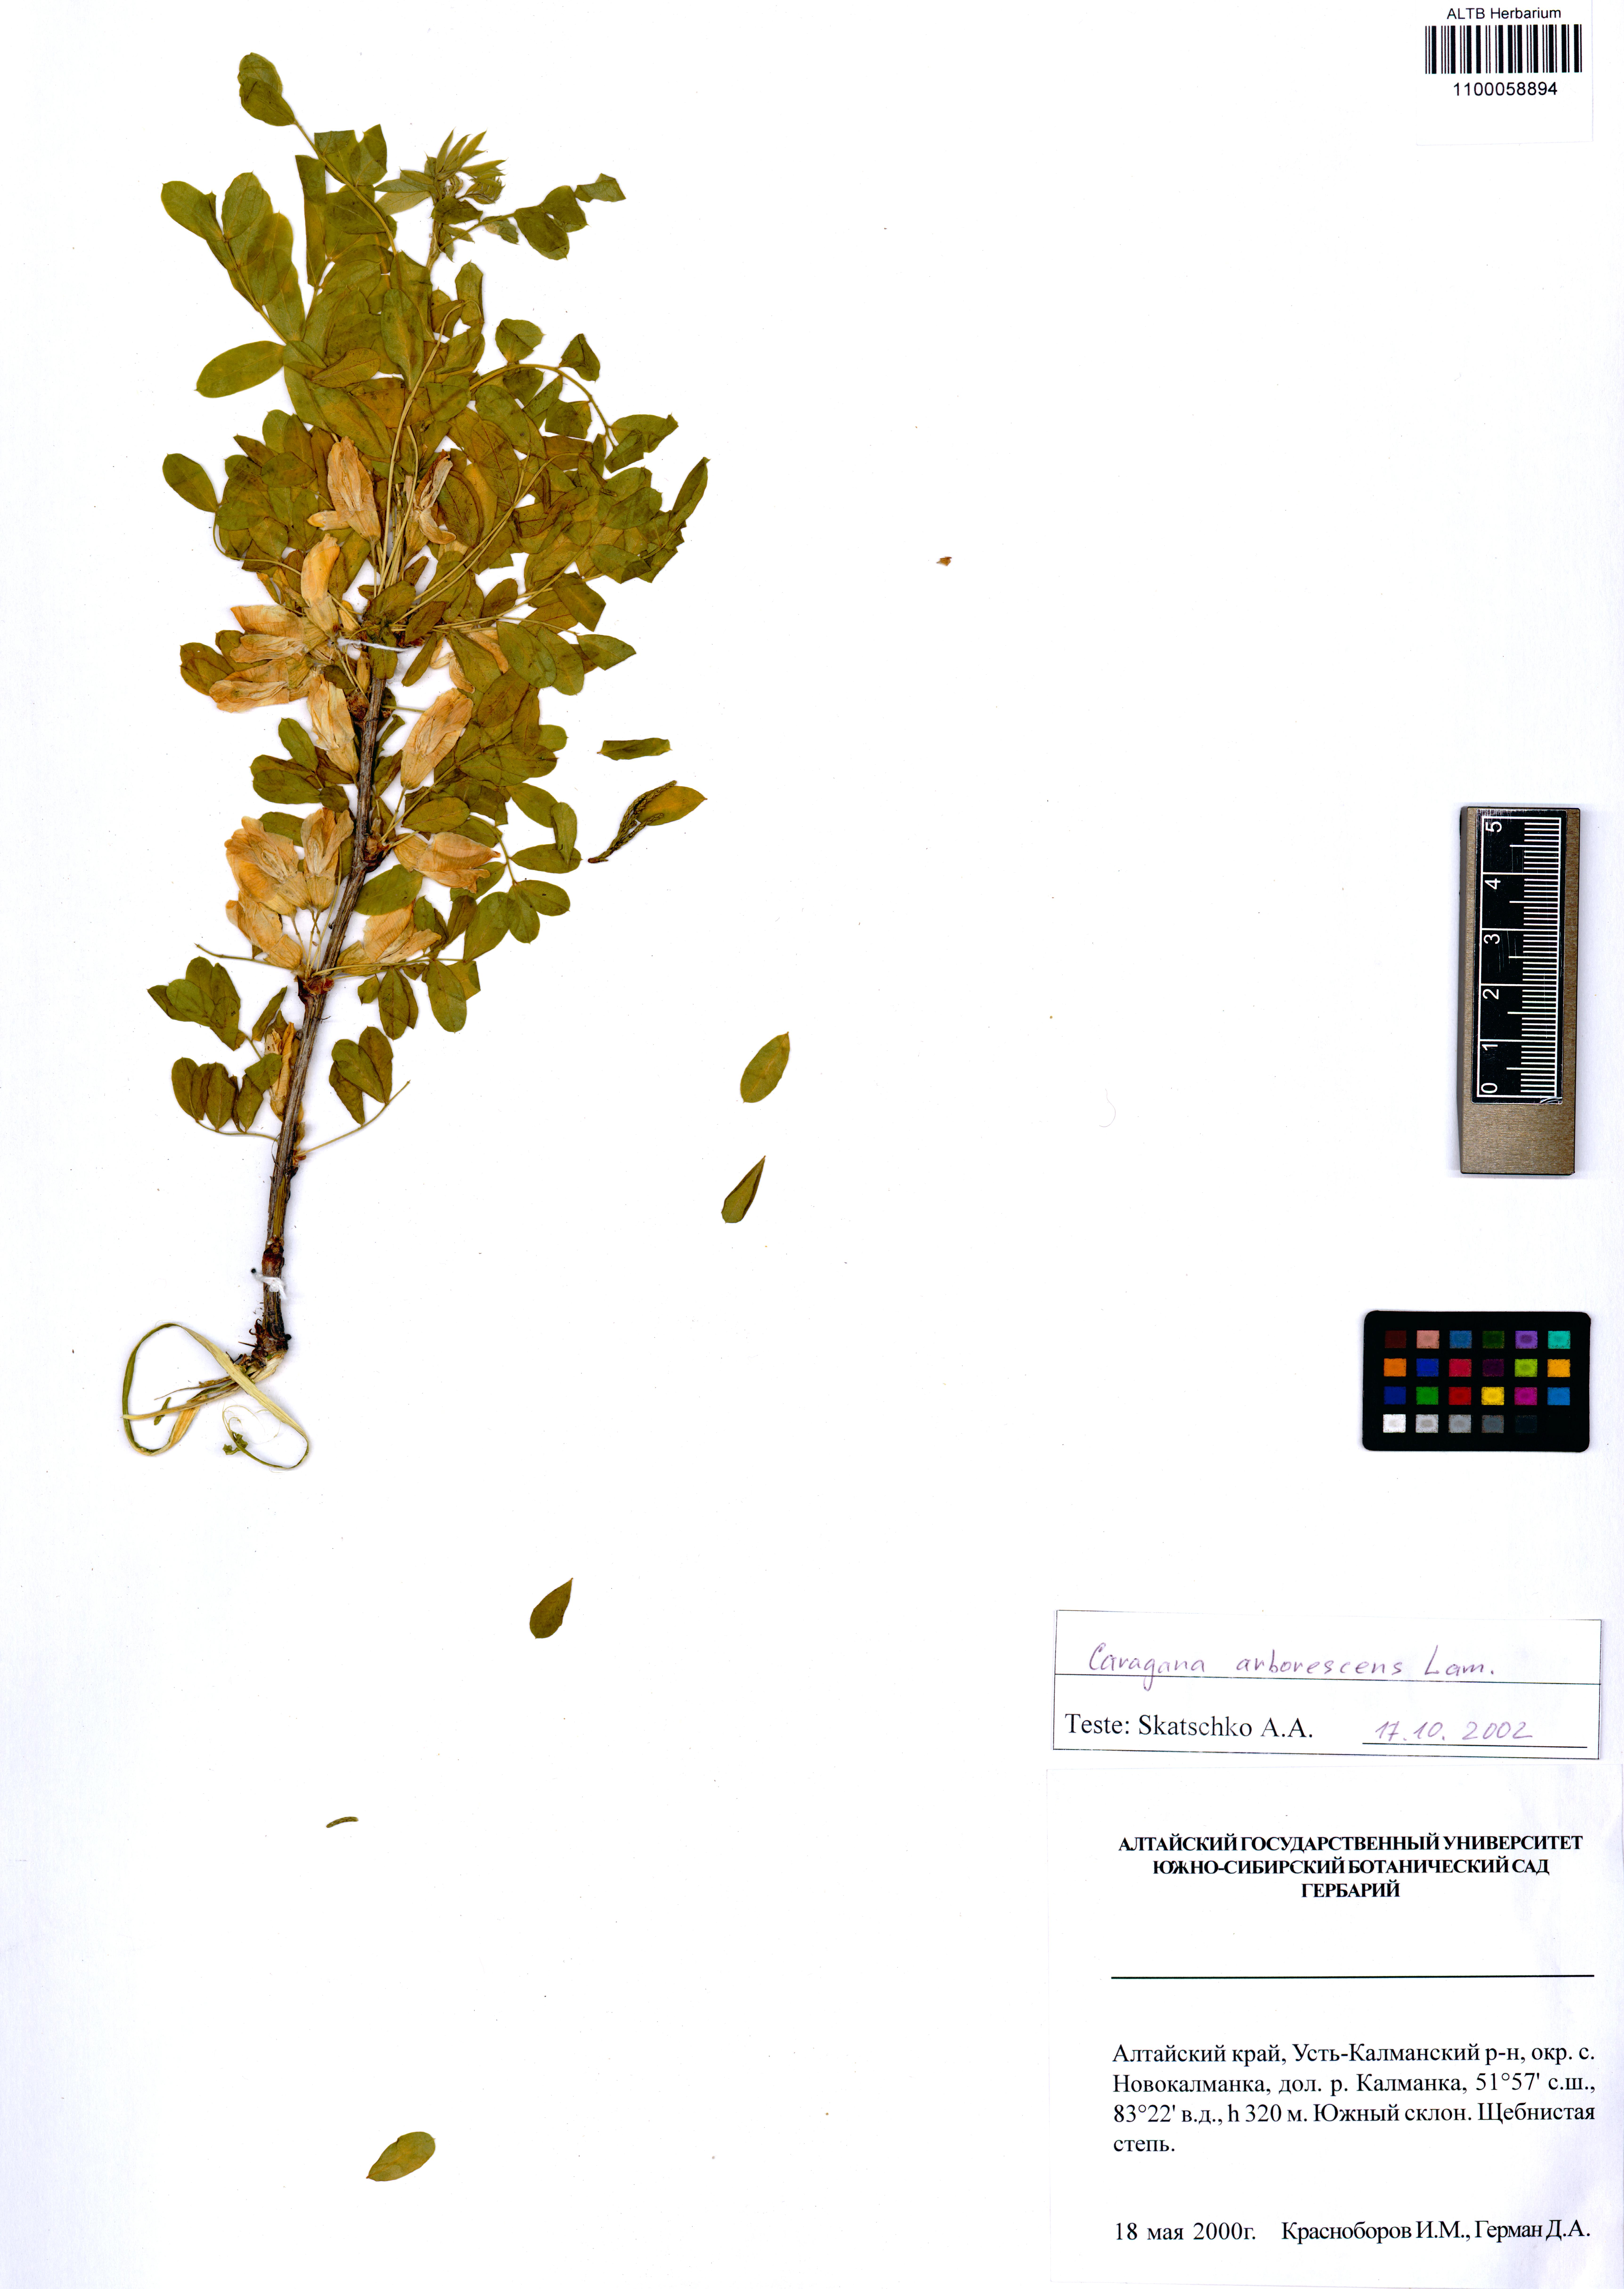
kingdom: Plantae
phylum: Tracheophyta
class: Magnoliopsida
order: Fabales
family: Fabaceae
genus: Caragana
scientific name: Caragana arborescens
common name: Siberian peashrub
